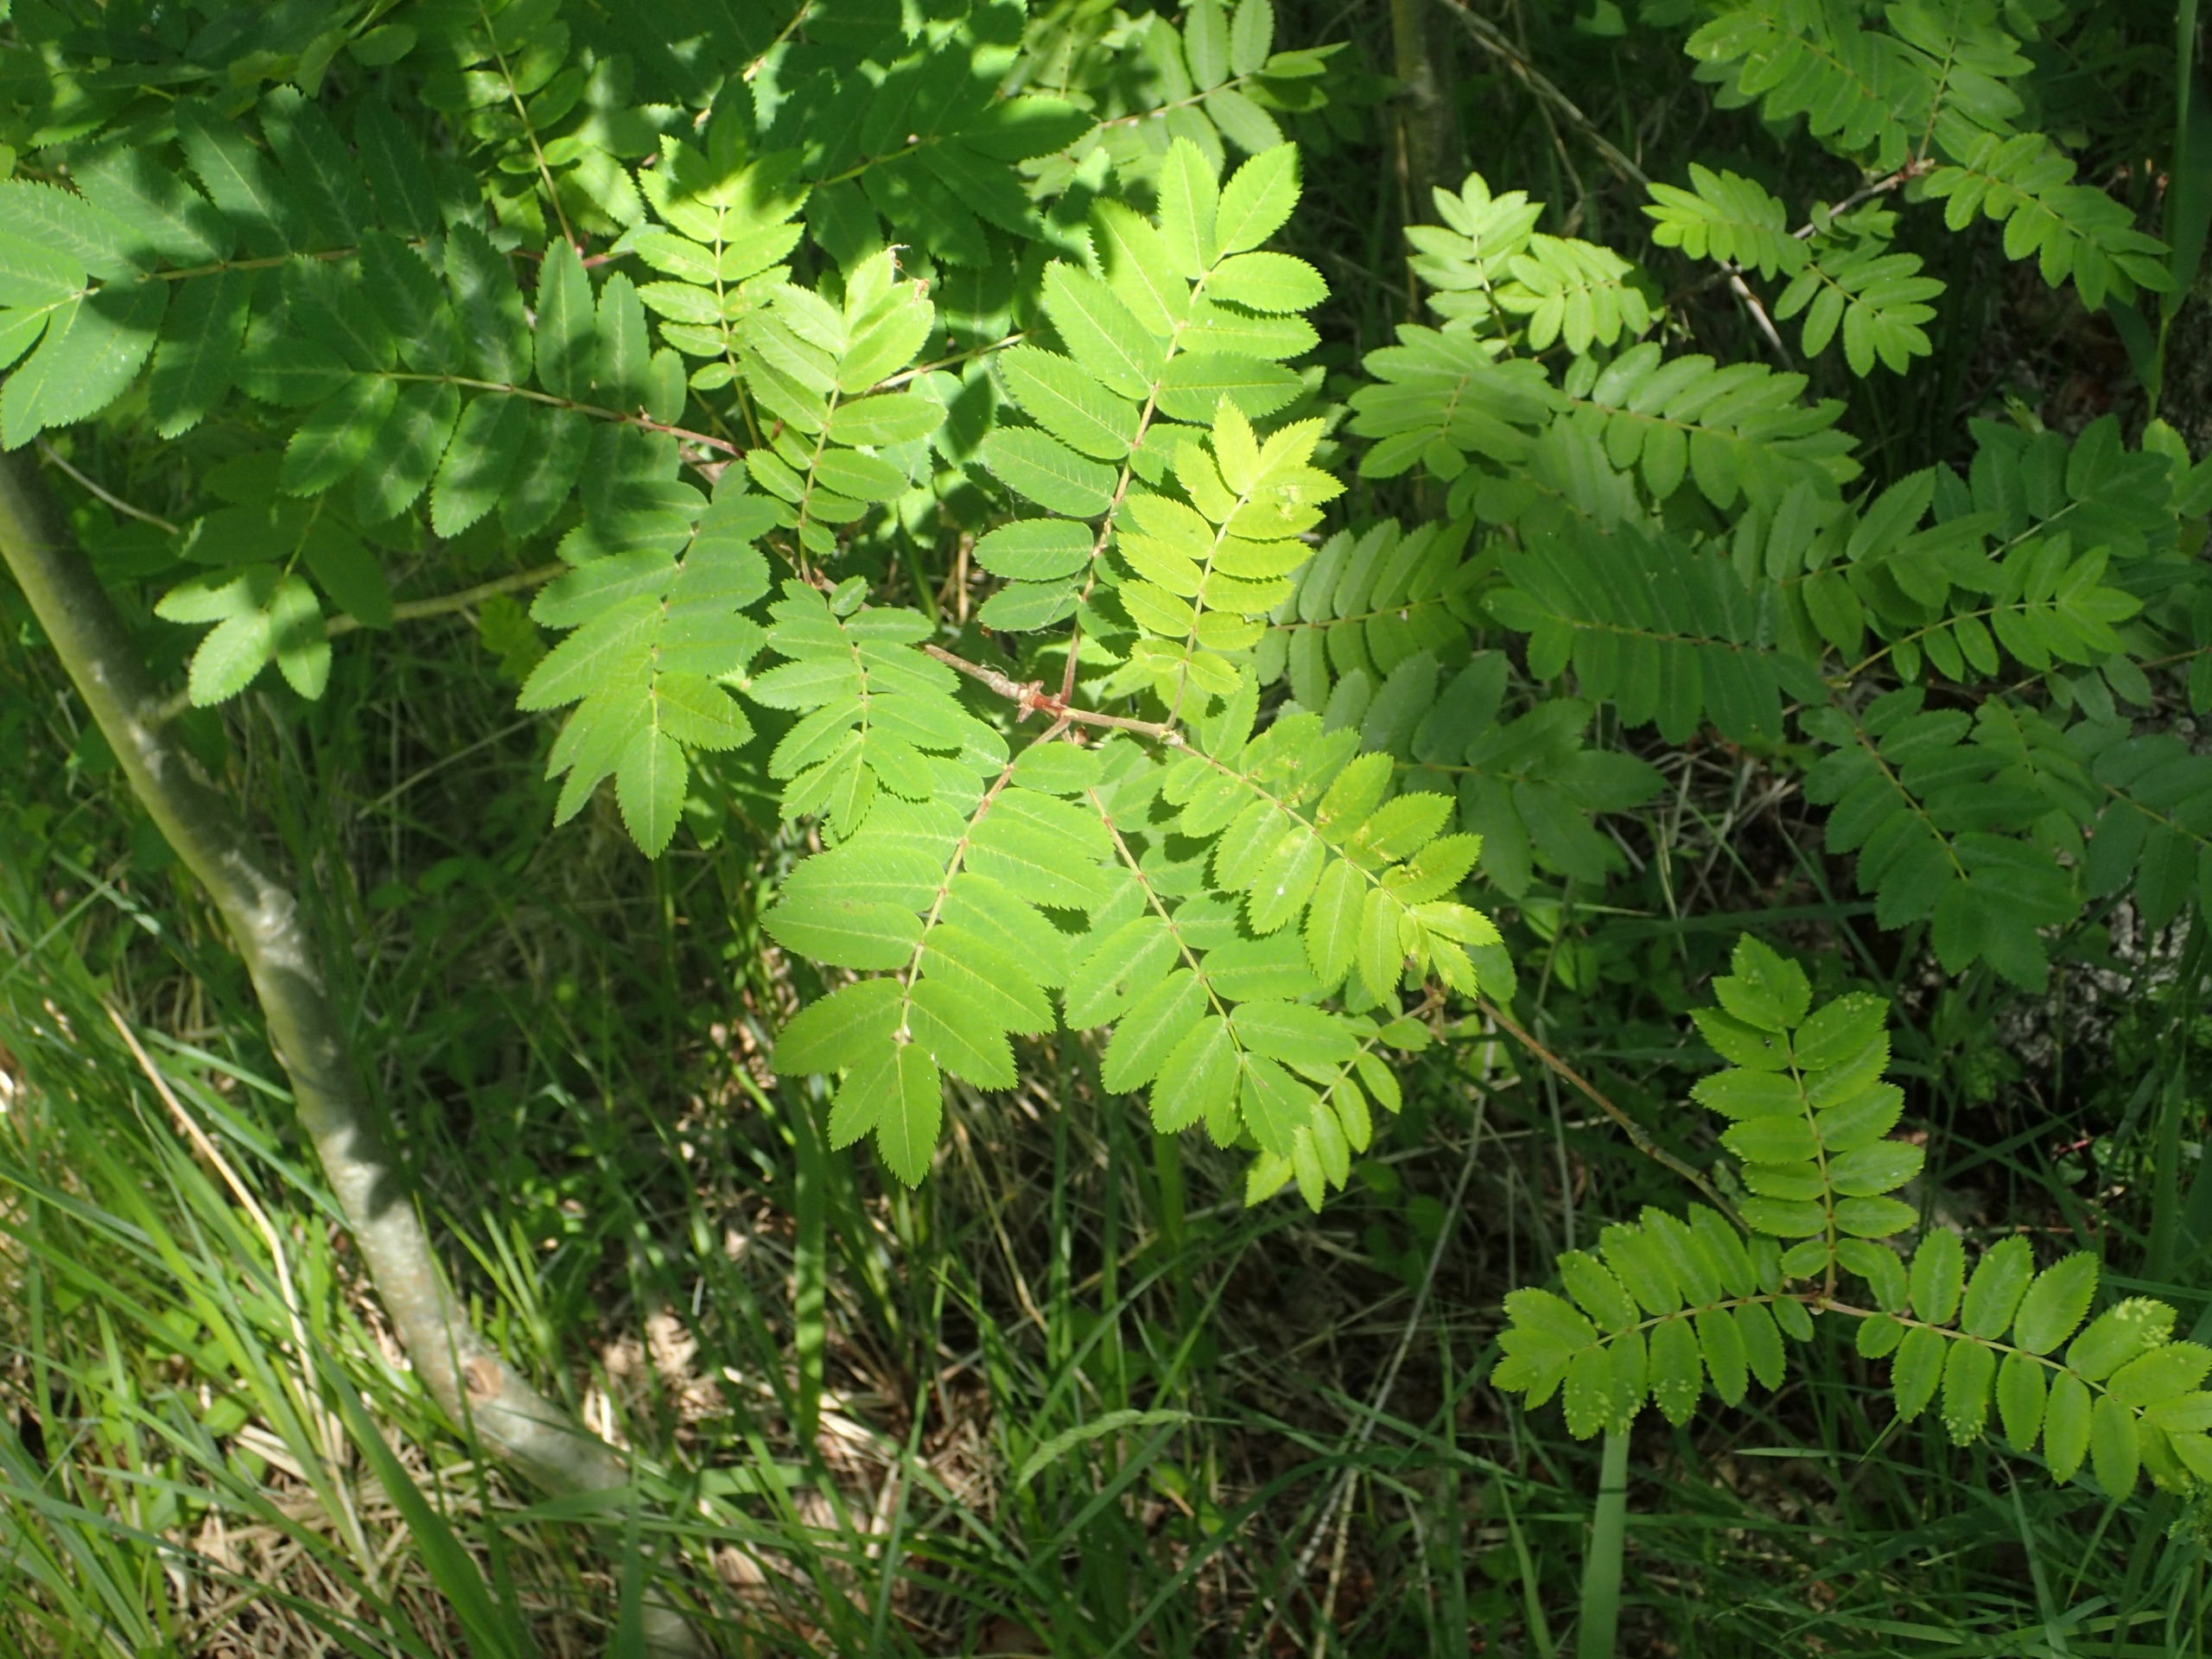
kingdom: Plantae
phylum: Tracheophyta
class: Magnoliopsida
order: Rosales
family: Rosaceae
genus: Sorbus
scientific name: Sorbus aucuparia
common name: Almindelig røn
